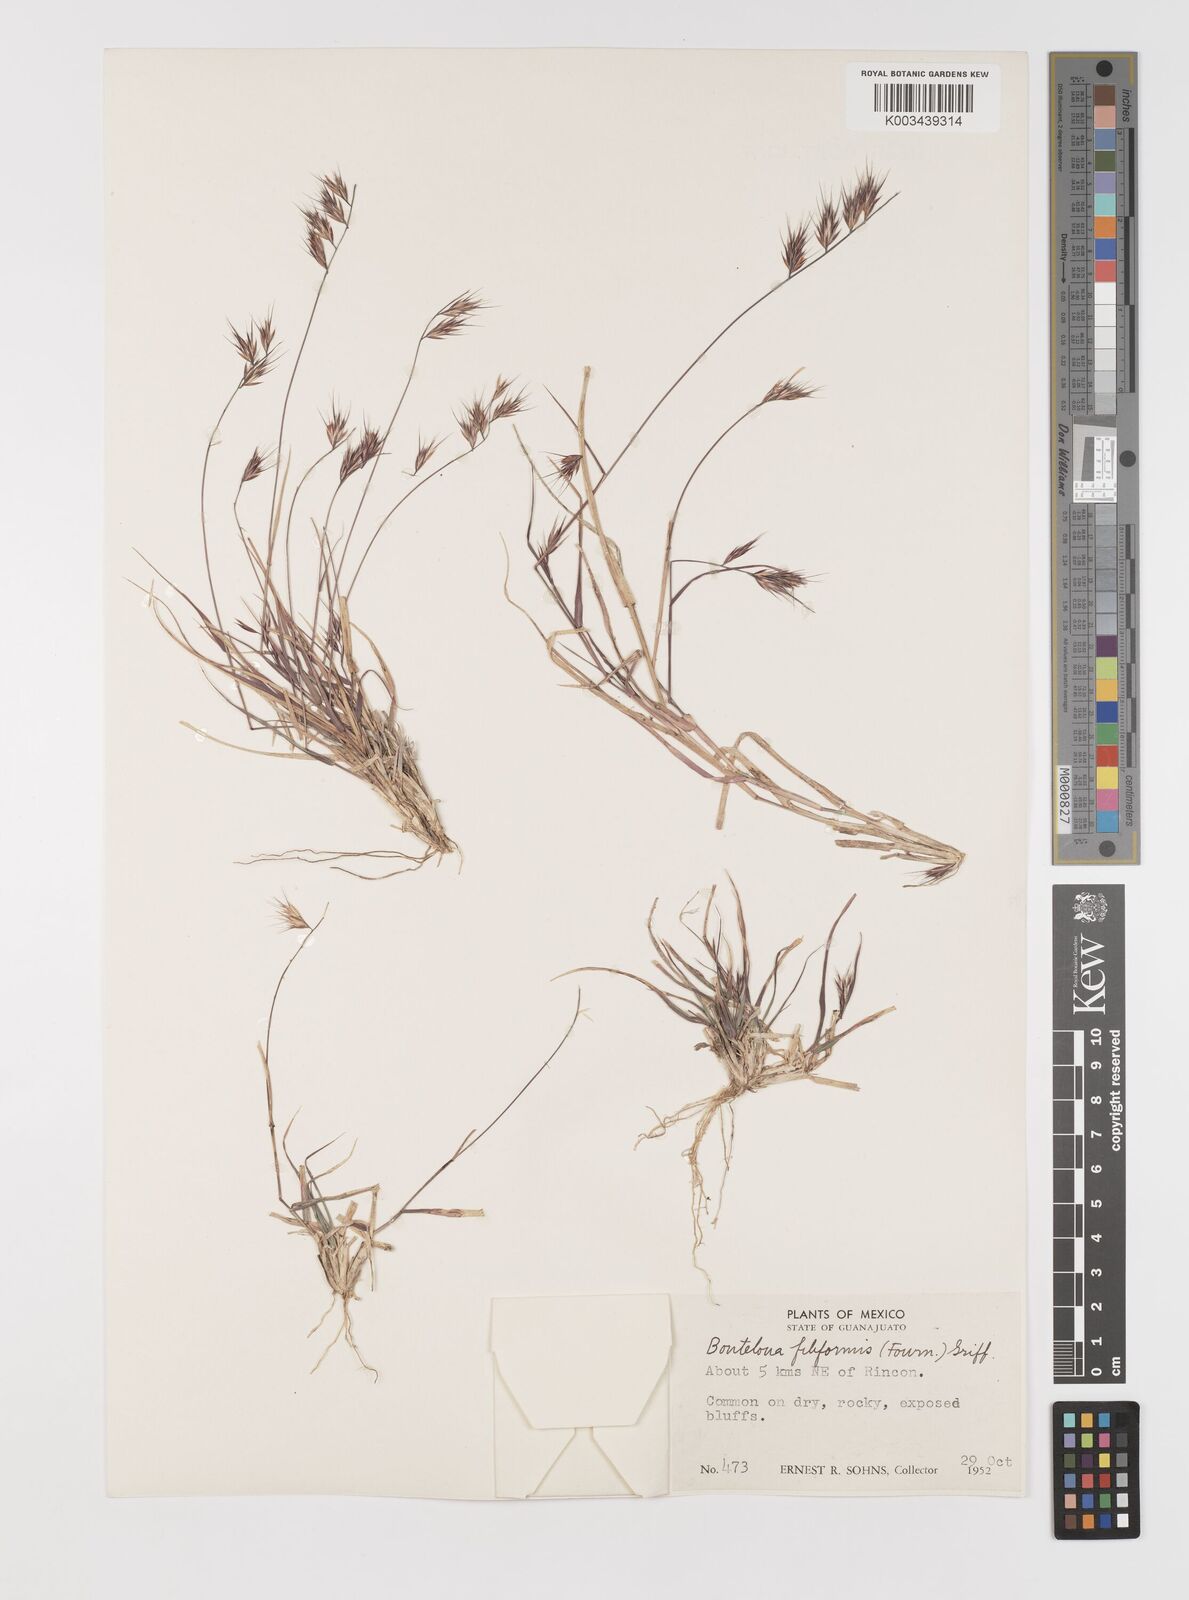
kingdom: Plantae
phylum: Tracheophyta
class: Liliopsida
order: Poales
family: Poaceae
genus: Bouteloua
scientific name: Bouteloua repens
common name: Slender grama
